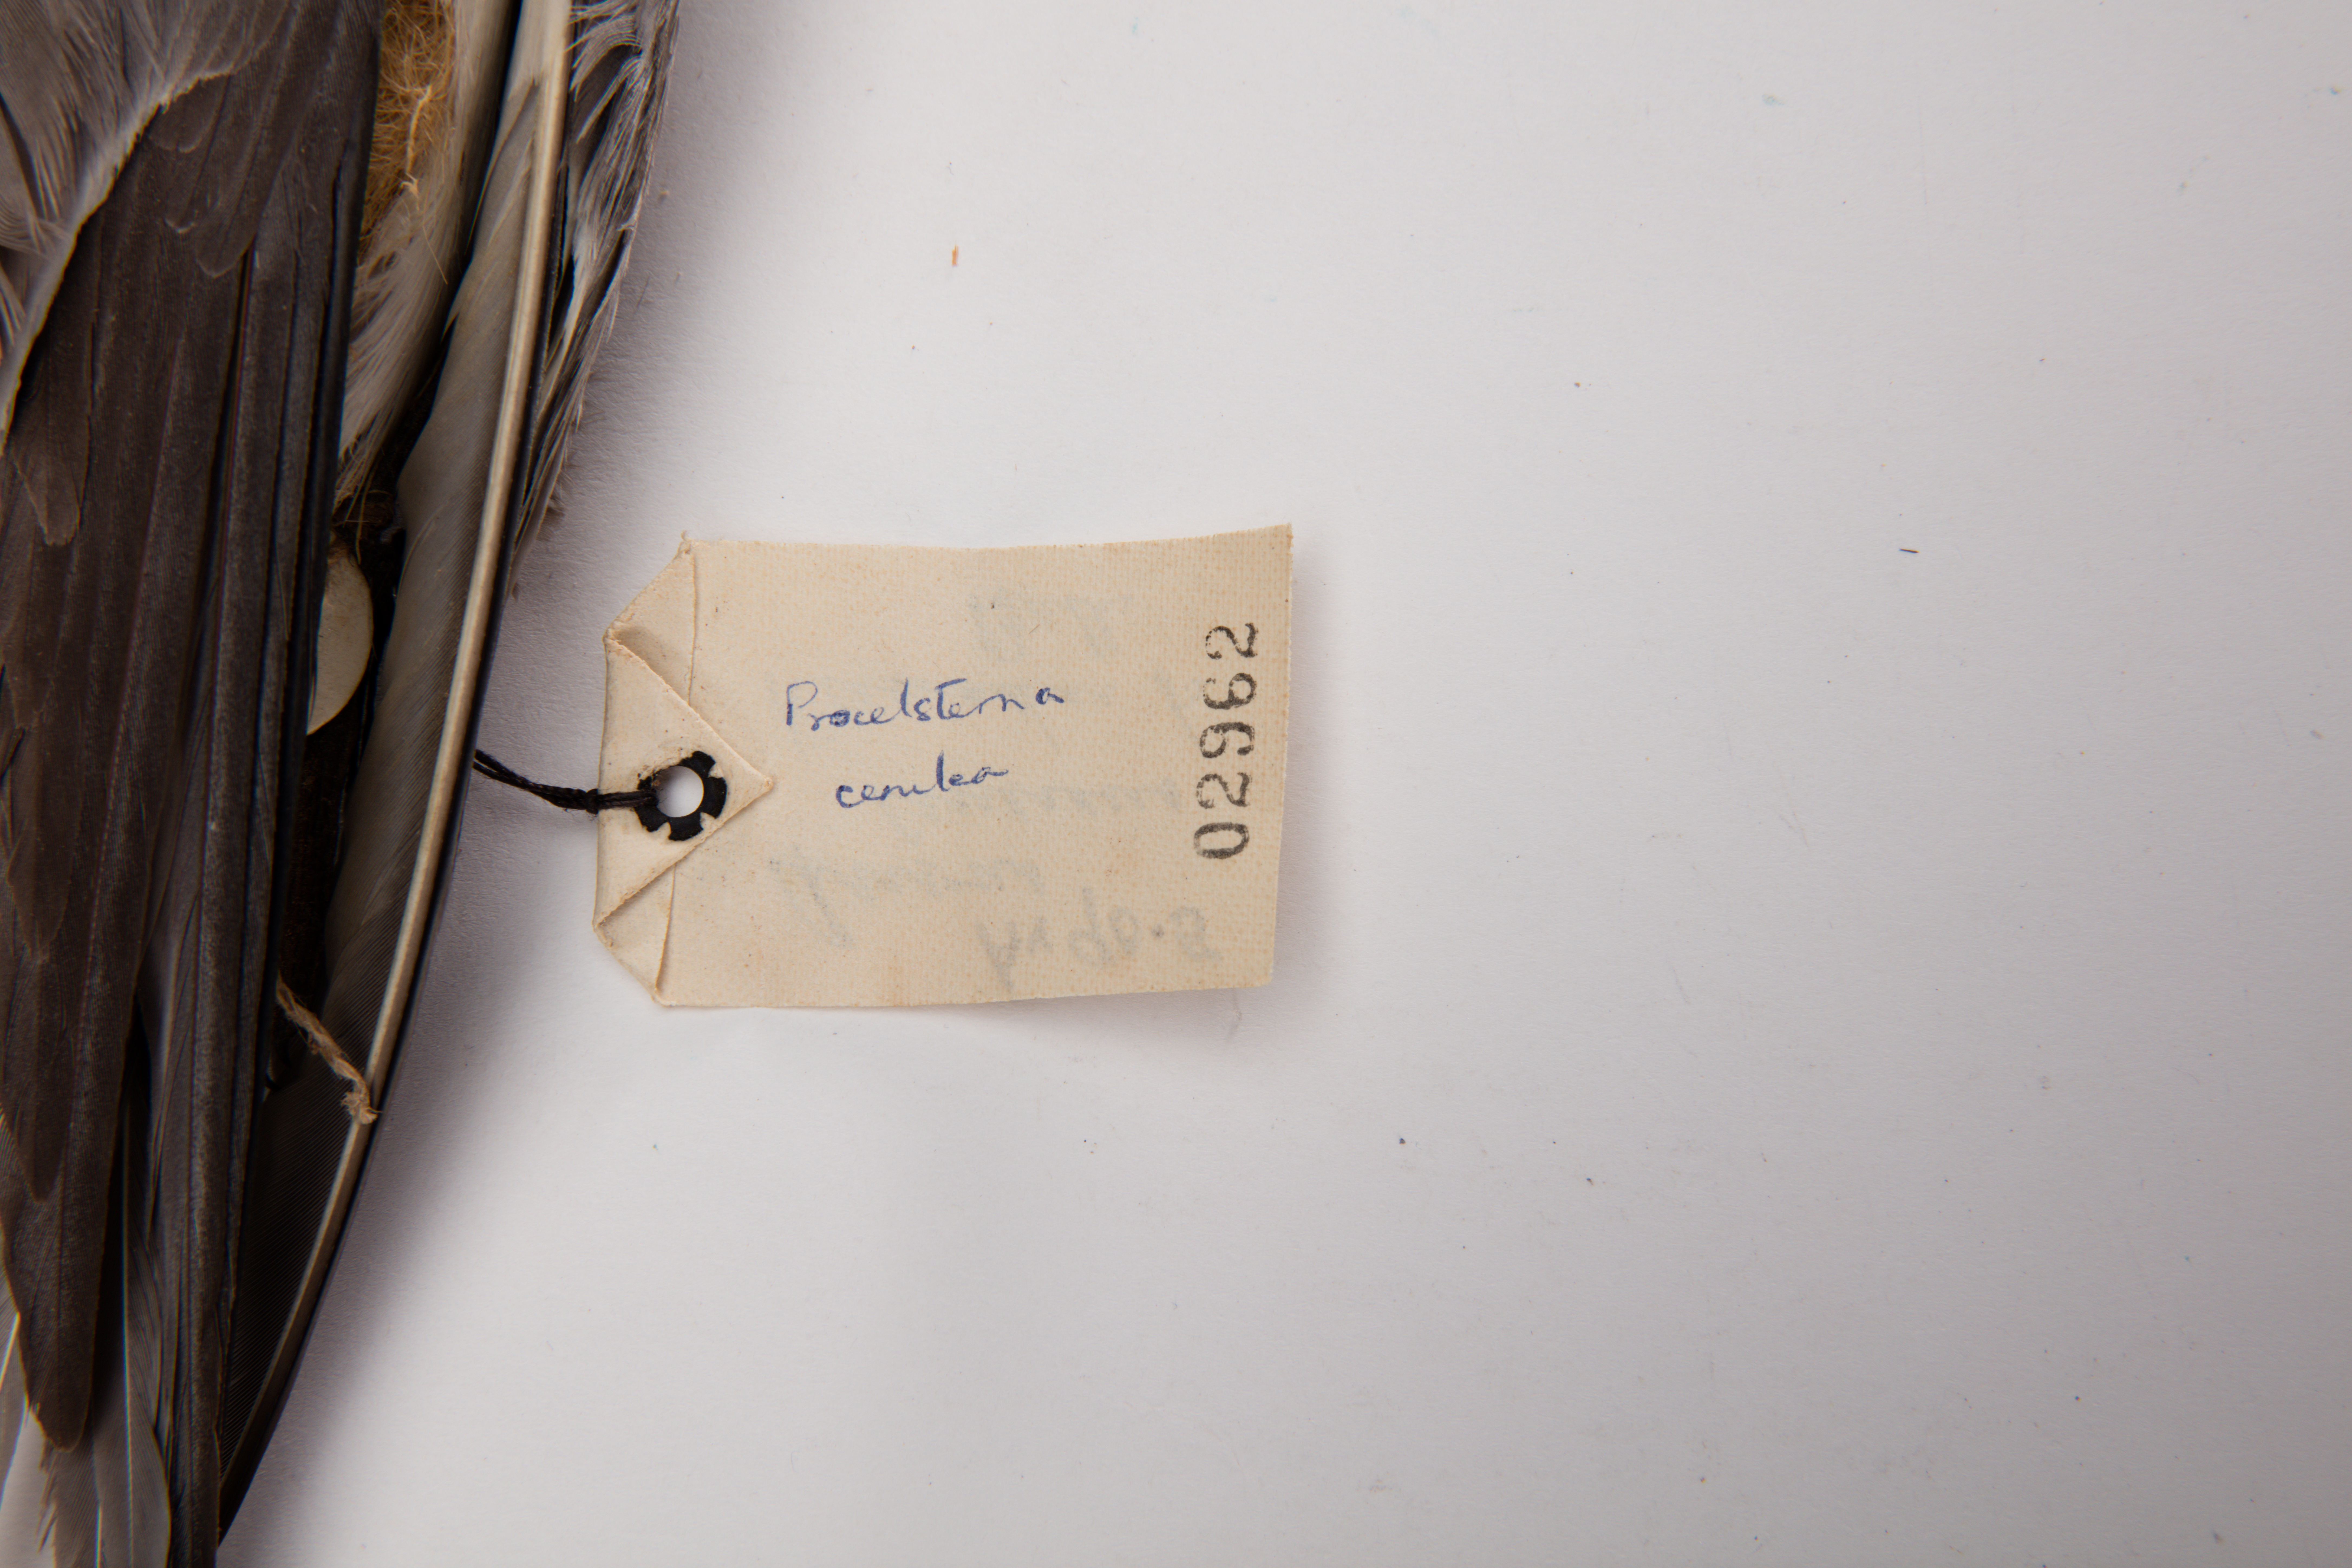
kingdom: Animalia
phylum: Chordata
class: Aves
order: Charadriiformes
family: Laridae
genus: Anous
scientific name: Anous ceruleus
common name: Blue-gray noddy
